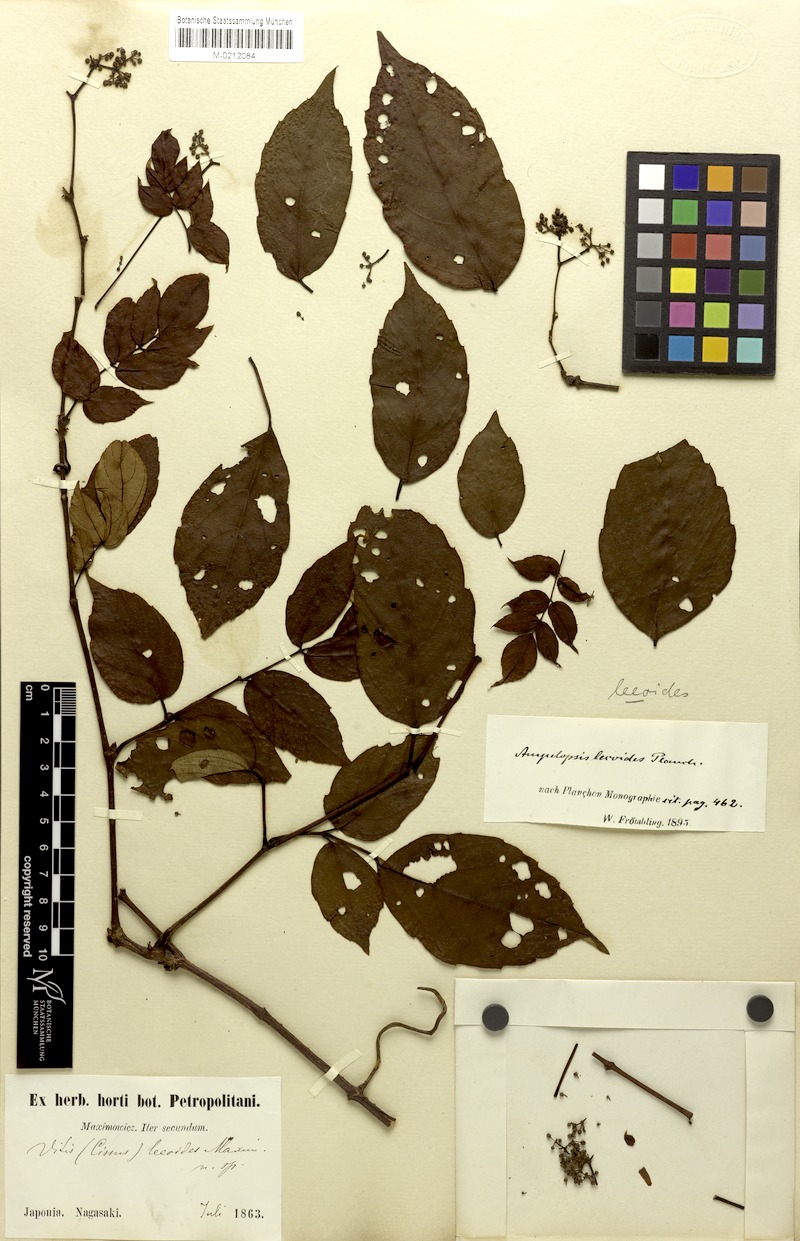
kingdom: Plantae
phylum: Tracheophyta
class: Magnoliopsida
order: Vitales
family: Vitaceae
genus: Nekemias
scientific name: Nekemias cantoniensis
